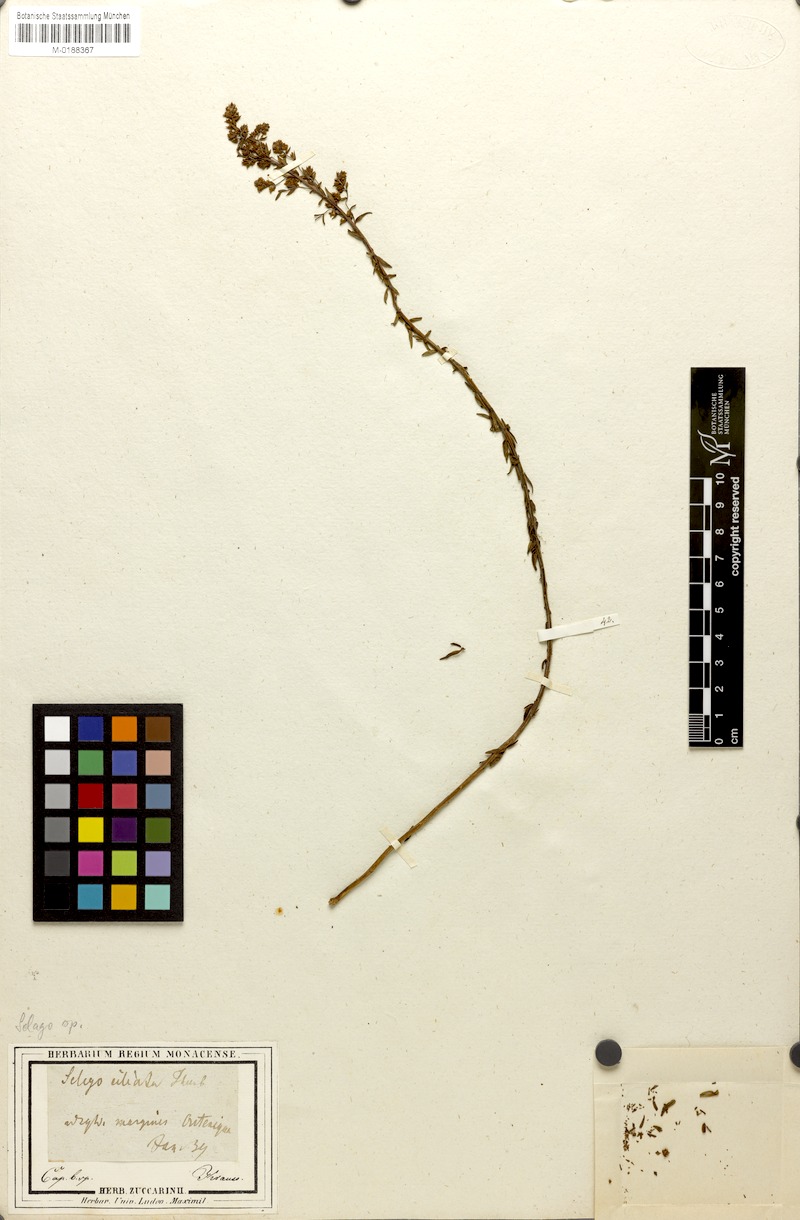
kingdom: Plantae
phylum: Tracheophyta
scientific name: Tracheophyta
